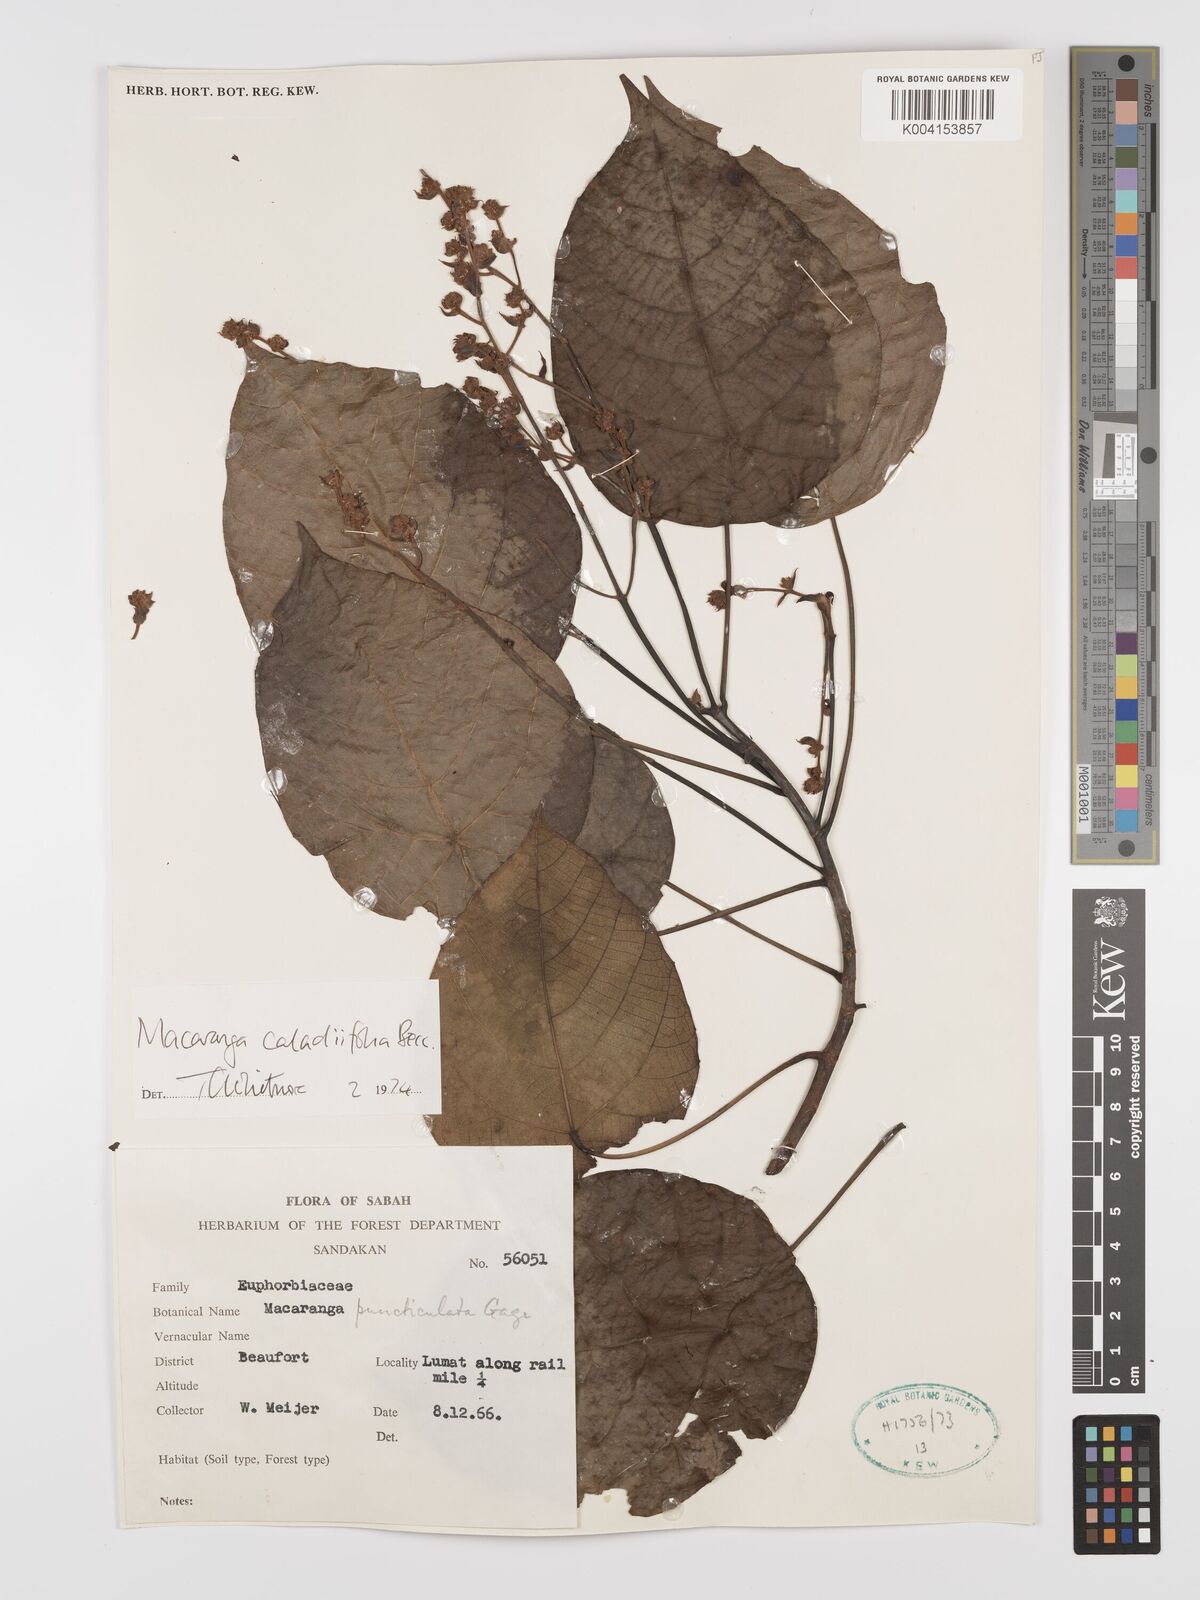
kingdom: Plantae
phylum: Tracheophyta
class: Magnoliopsida
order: Malpighiales
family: Euphorbiaceae
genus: Macaranga
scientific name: Macaranga caladiifolia
